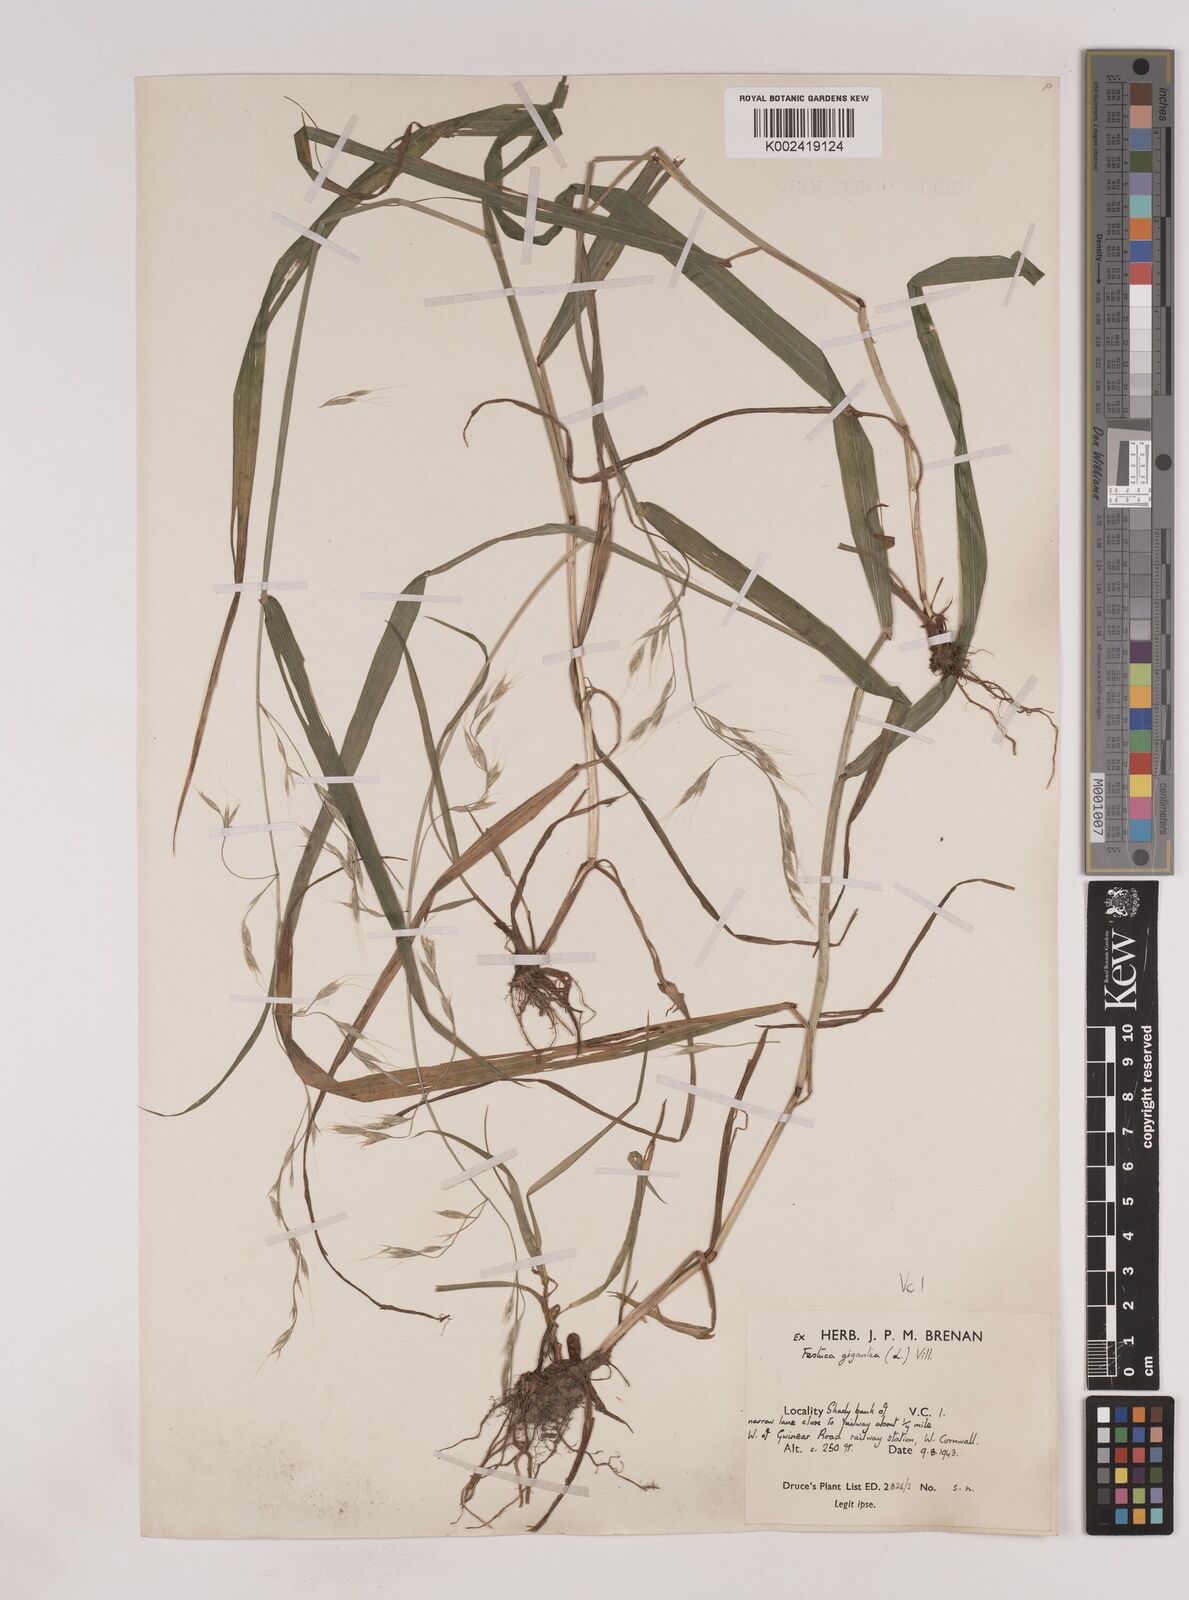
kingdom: Plantae
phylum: Tracheophyta
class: Liliopsida
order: Poales
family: Poaceae
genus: Lolium
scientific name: Lolium giganteum
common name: Giant fescue
